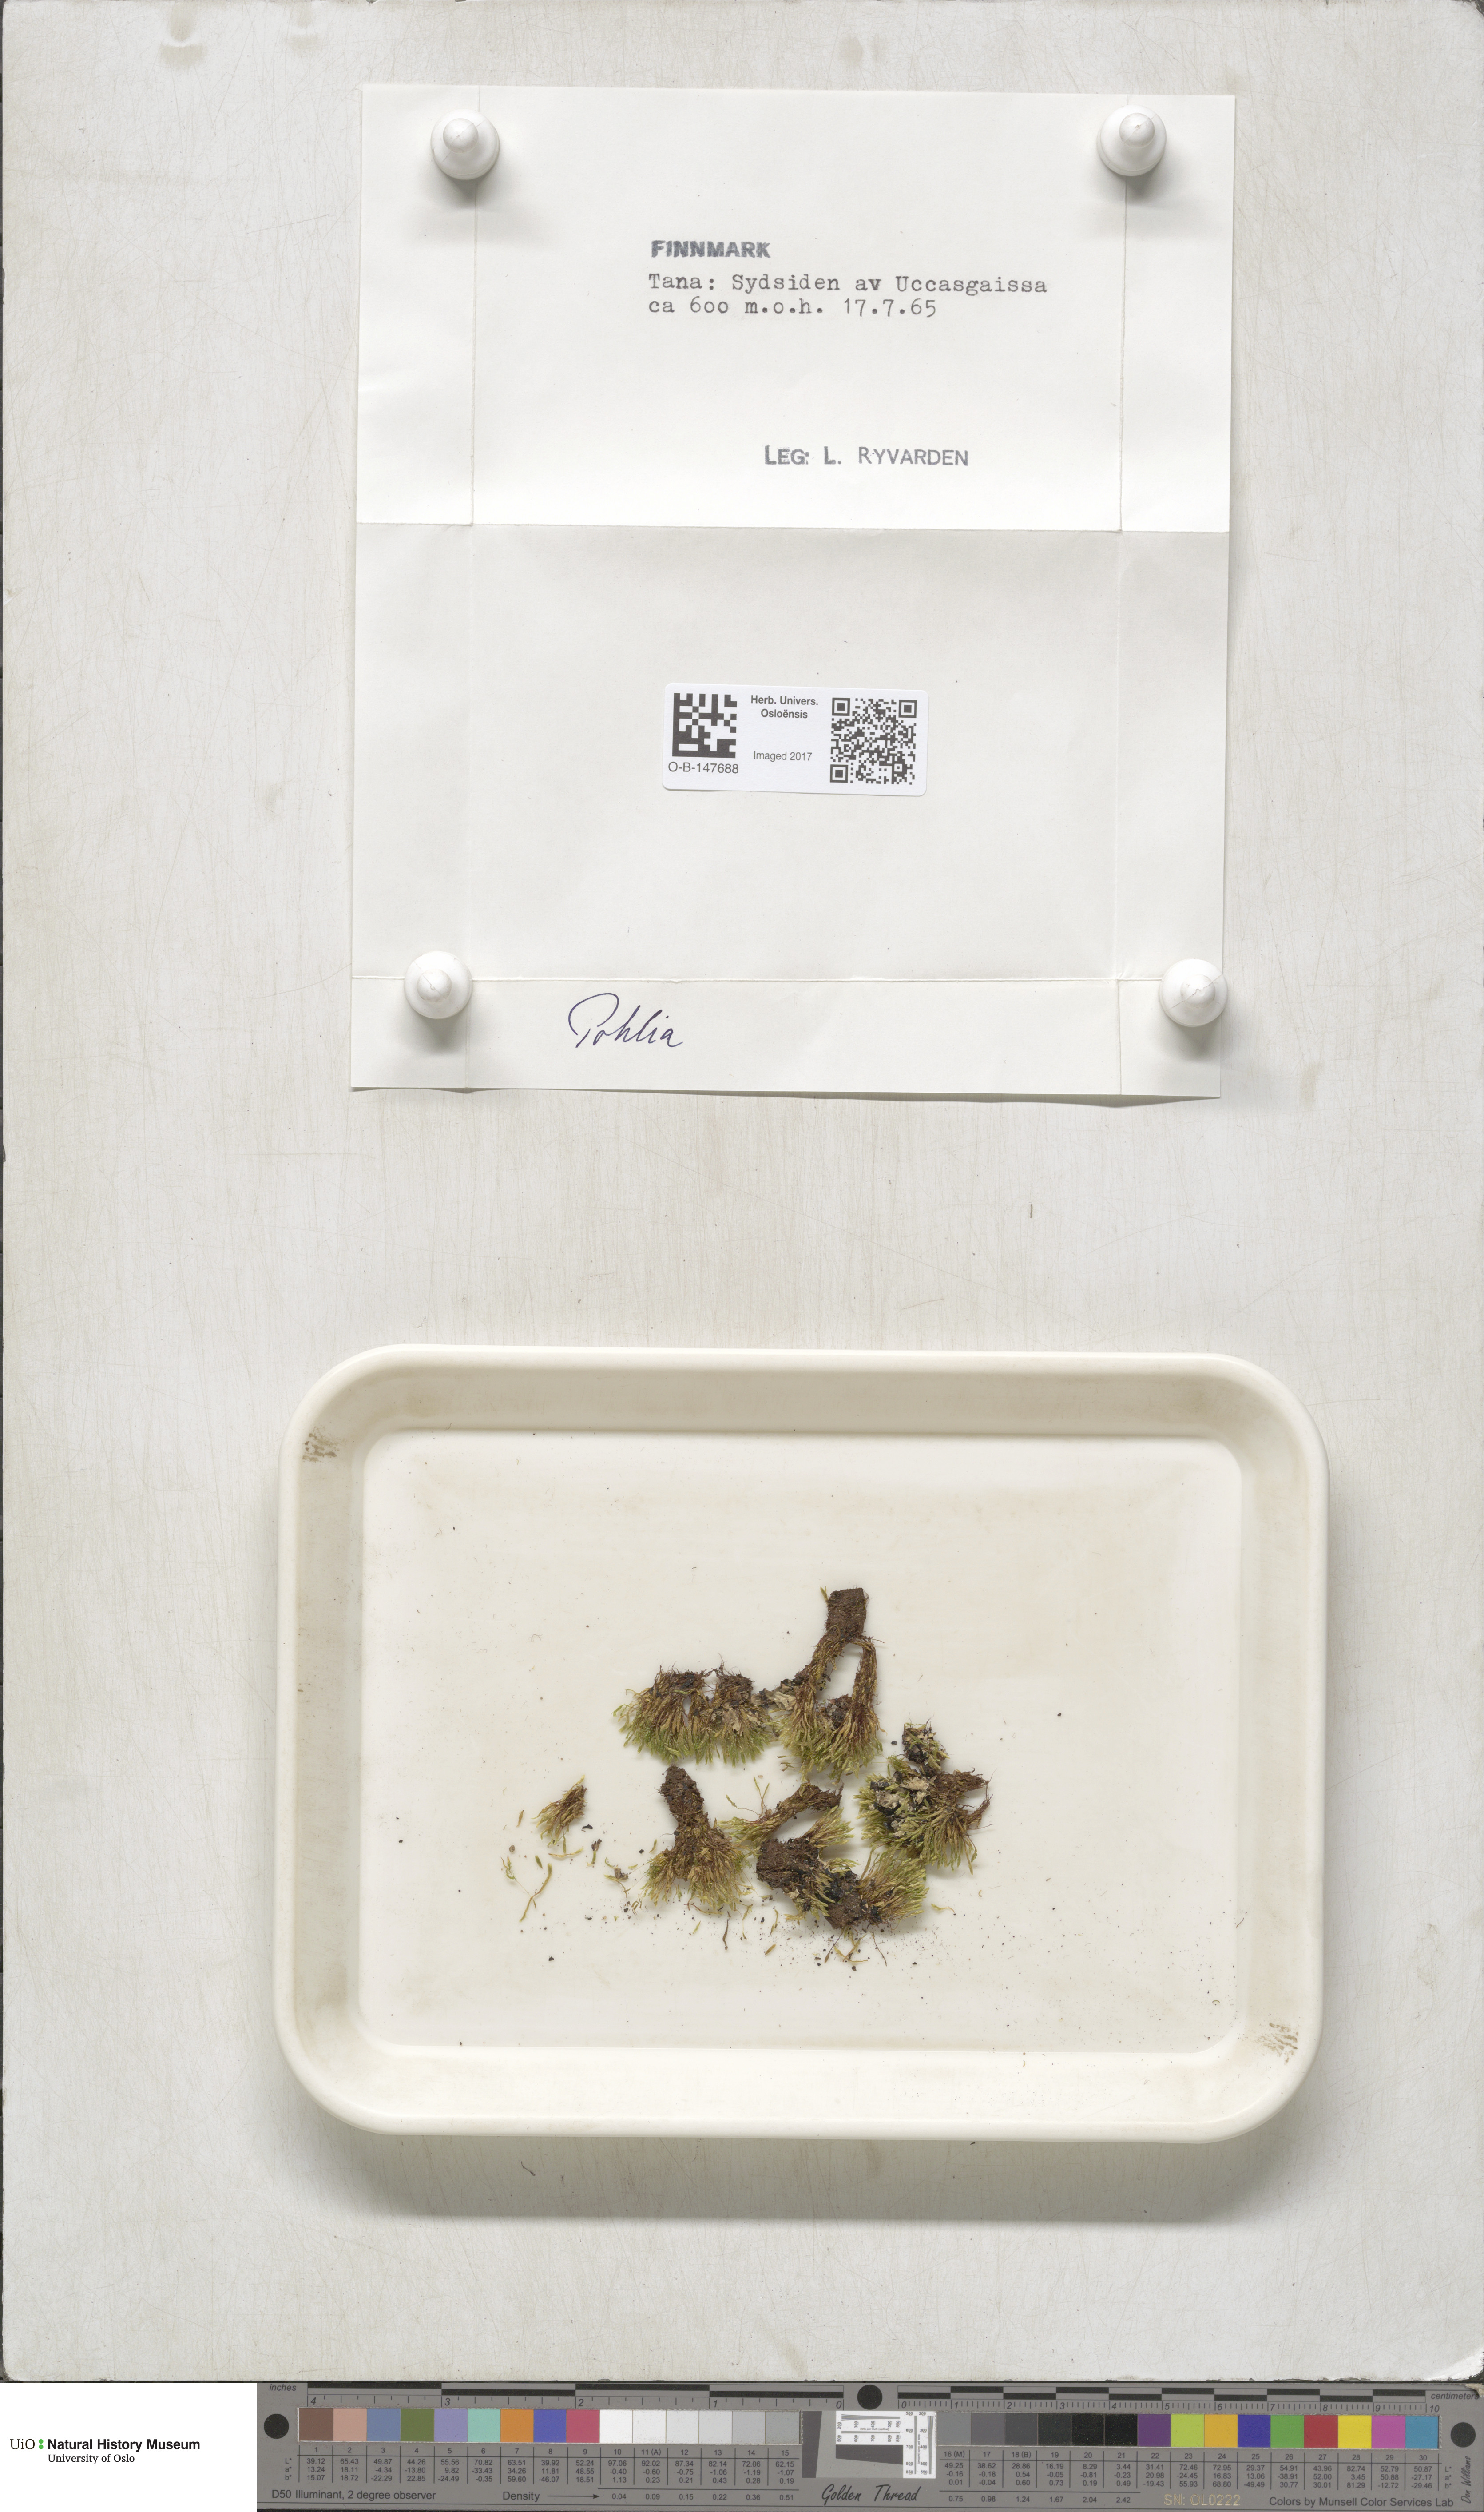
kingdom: Plantae
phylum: Bryophyta
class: Bryopsida
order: Bryales
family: Mniaceae
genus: Pohlia
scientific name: Pohlia
